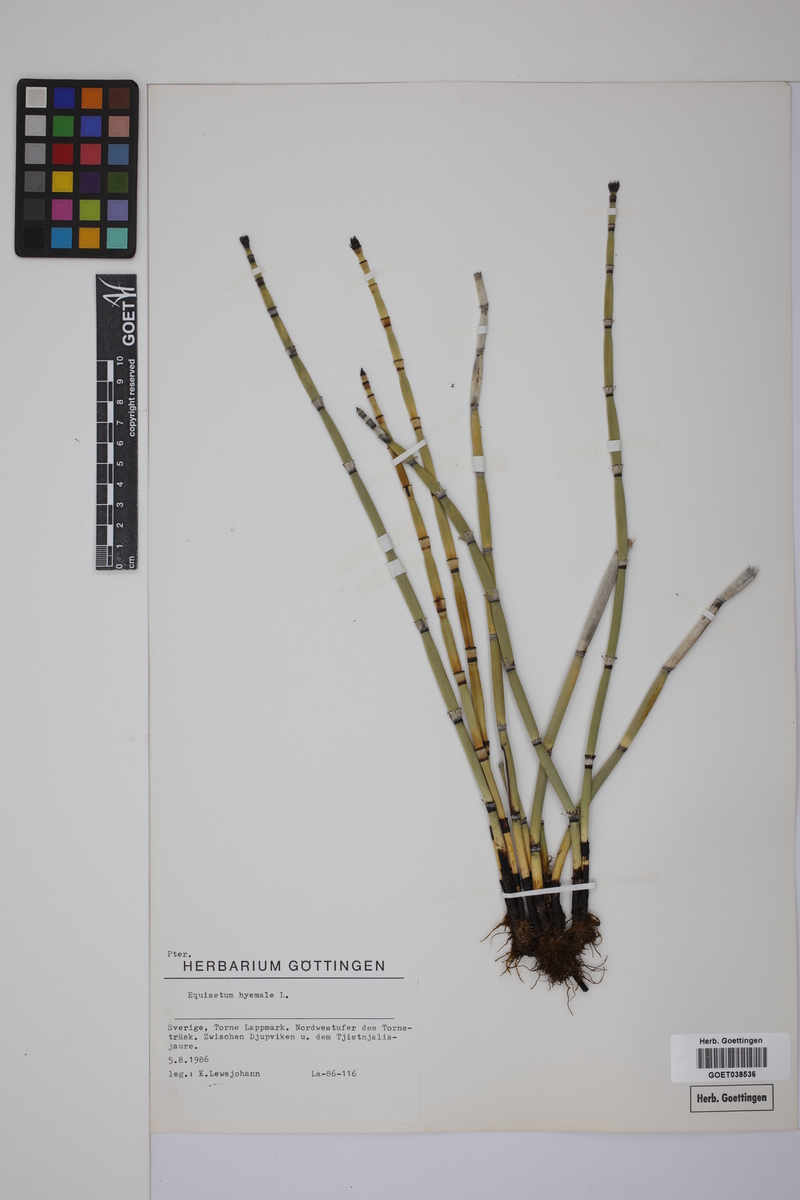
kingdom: Plantae
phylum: Tracheophyta
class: Polypodiopsida
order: Equisetales
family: Equisetaceae
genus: Equisetum
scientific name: Equisetum hyemale
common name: Rough horsetail
